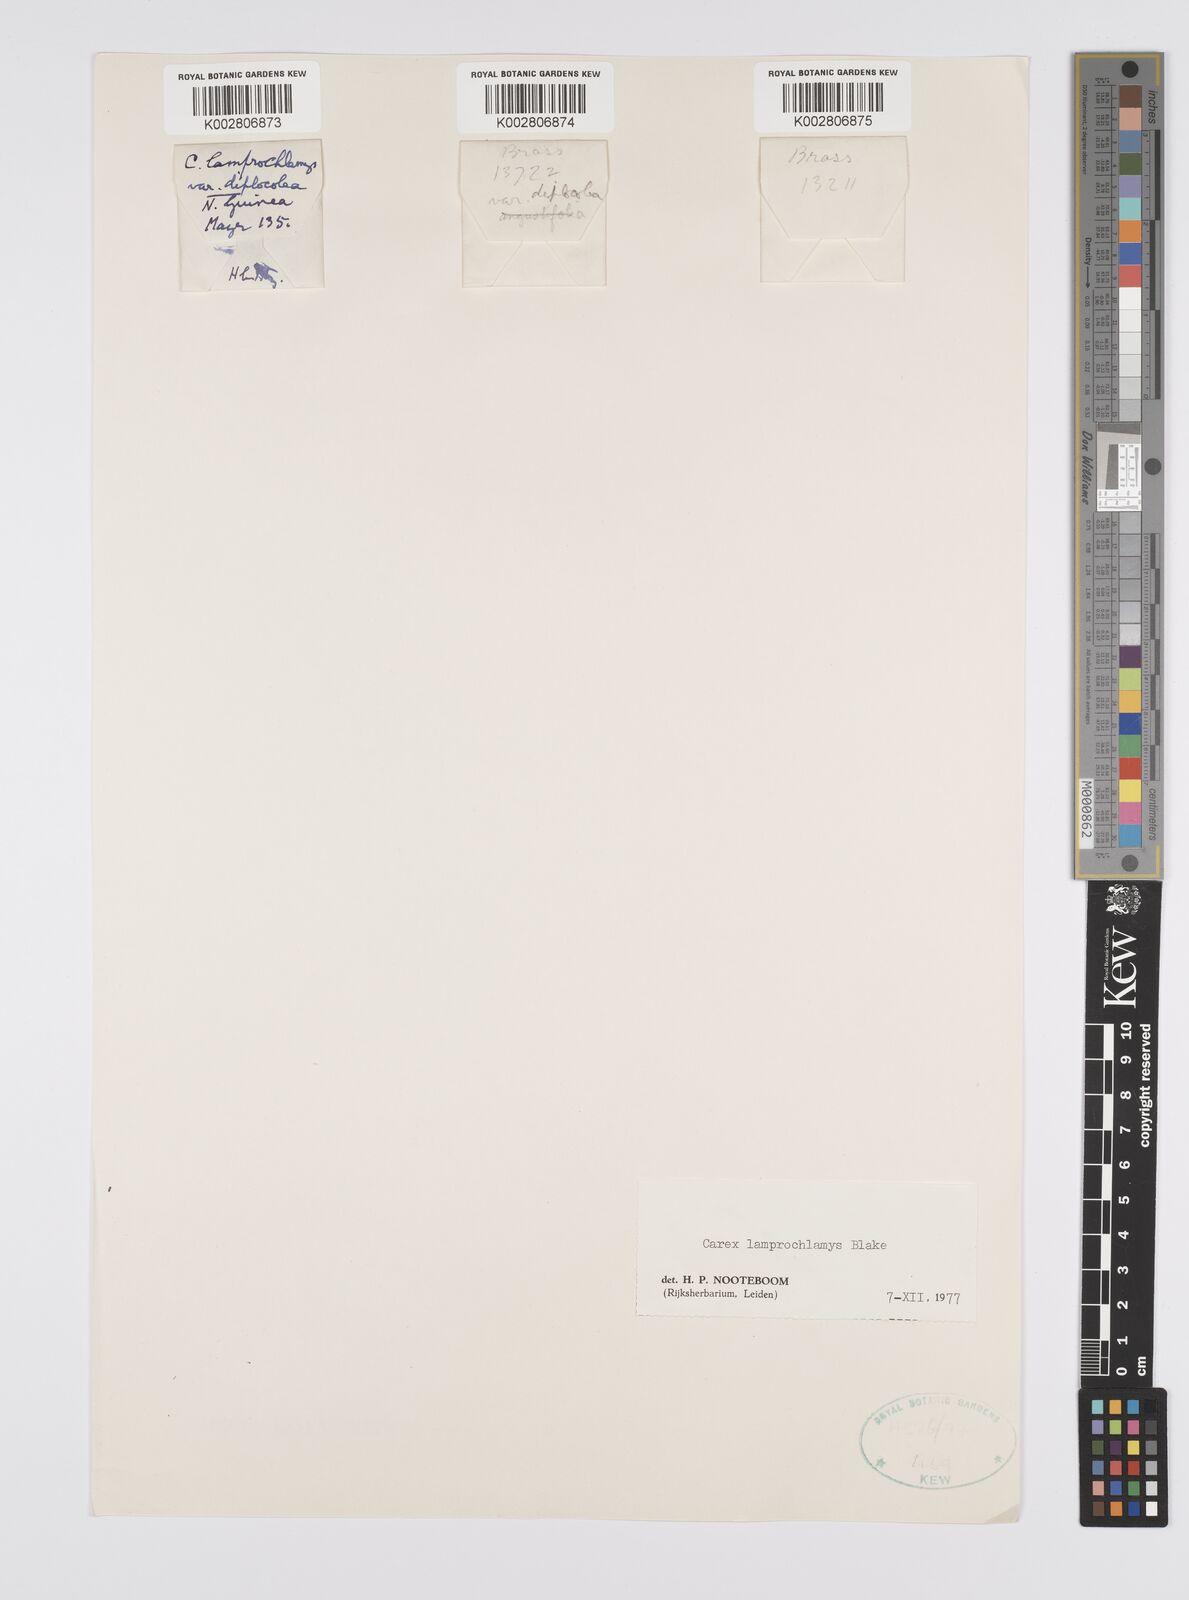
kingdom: Plantae
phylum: Tracheophyta
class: Liliopsida
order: Poales
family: Cyperaceae
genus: Carex
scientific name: Carex lamprochlamys
